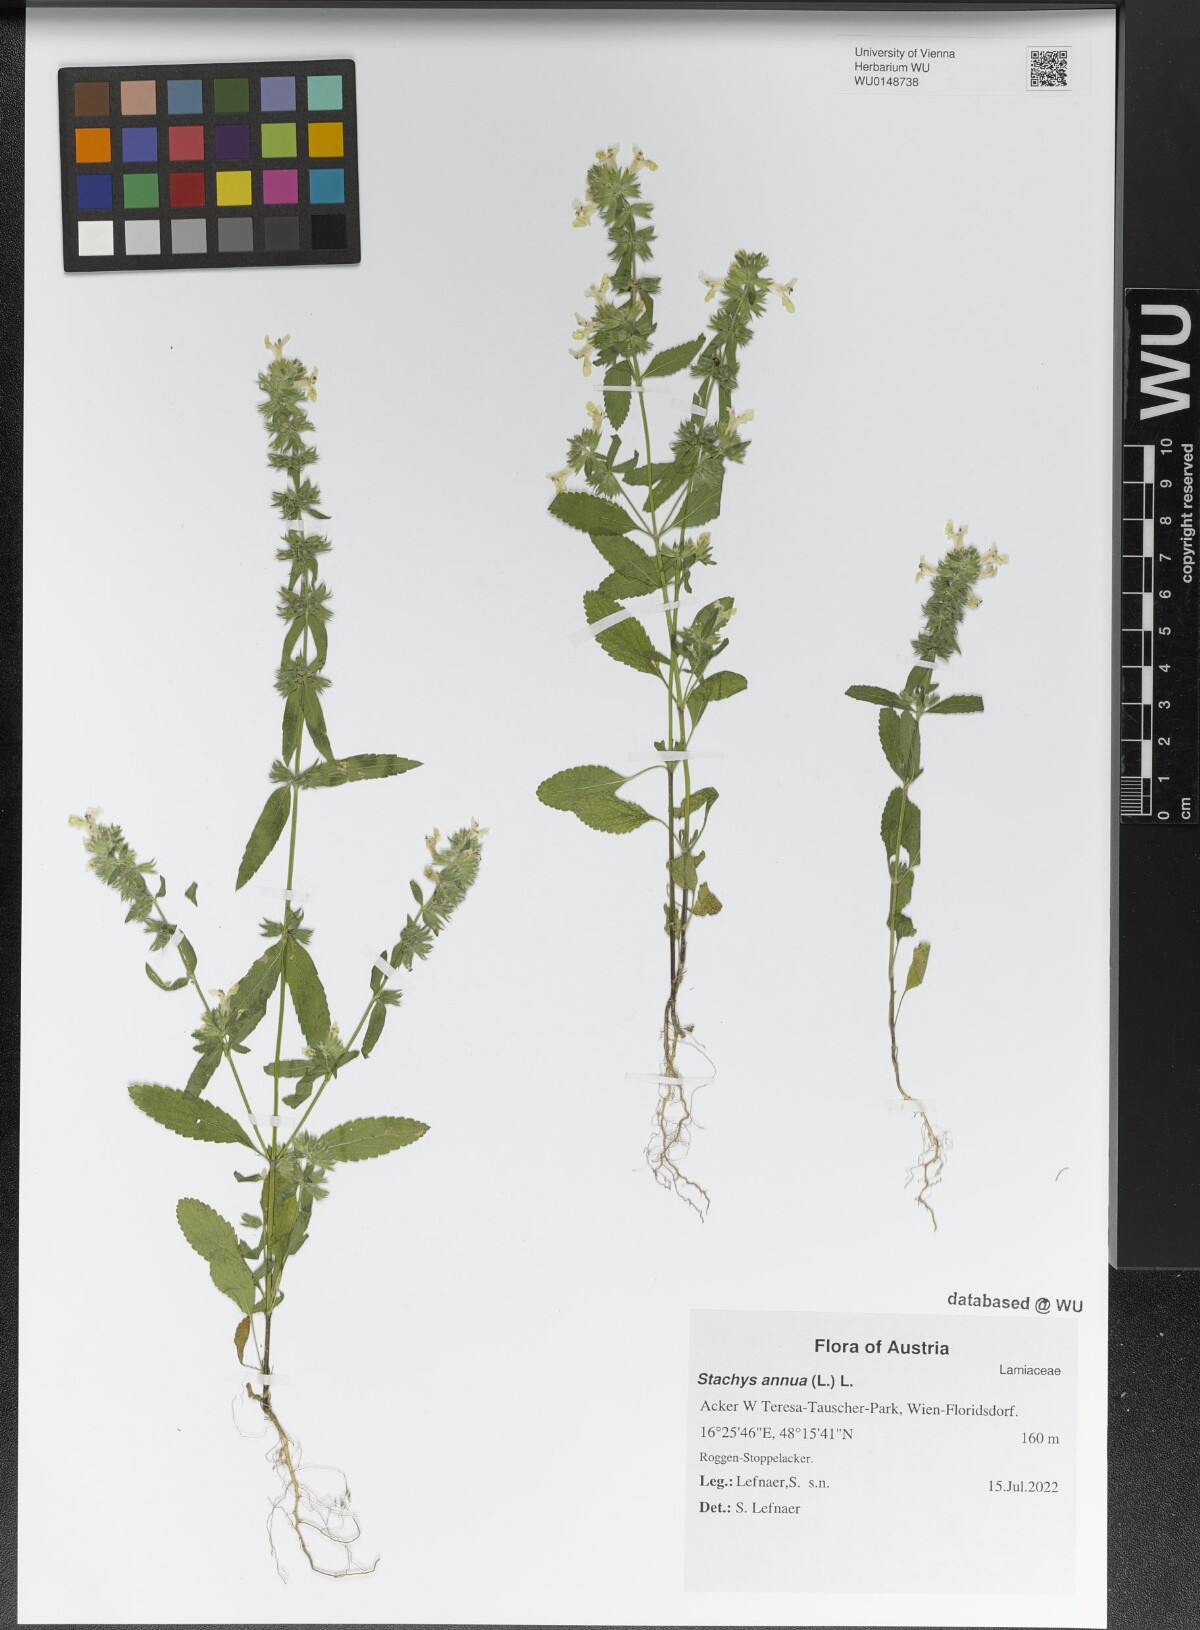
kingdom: Plantae
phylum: Tracheophyta
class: Magnoliopsida
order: Lamiales
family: Lamiaceae
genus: Stachys
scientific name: Stachys annua
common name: Annual yellow-woundwort
